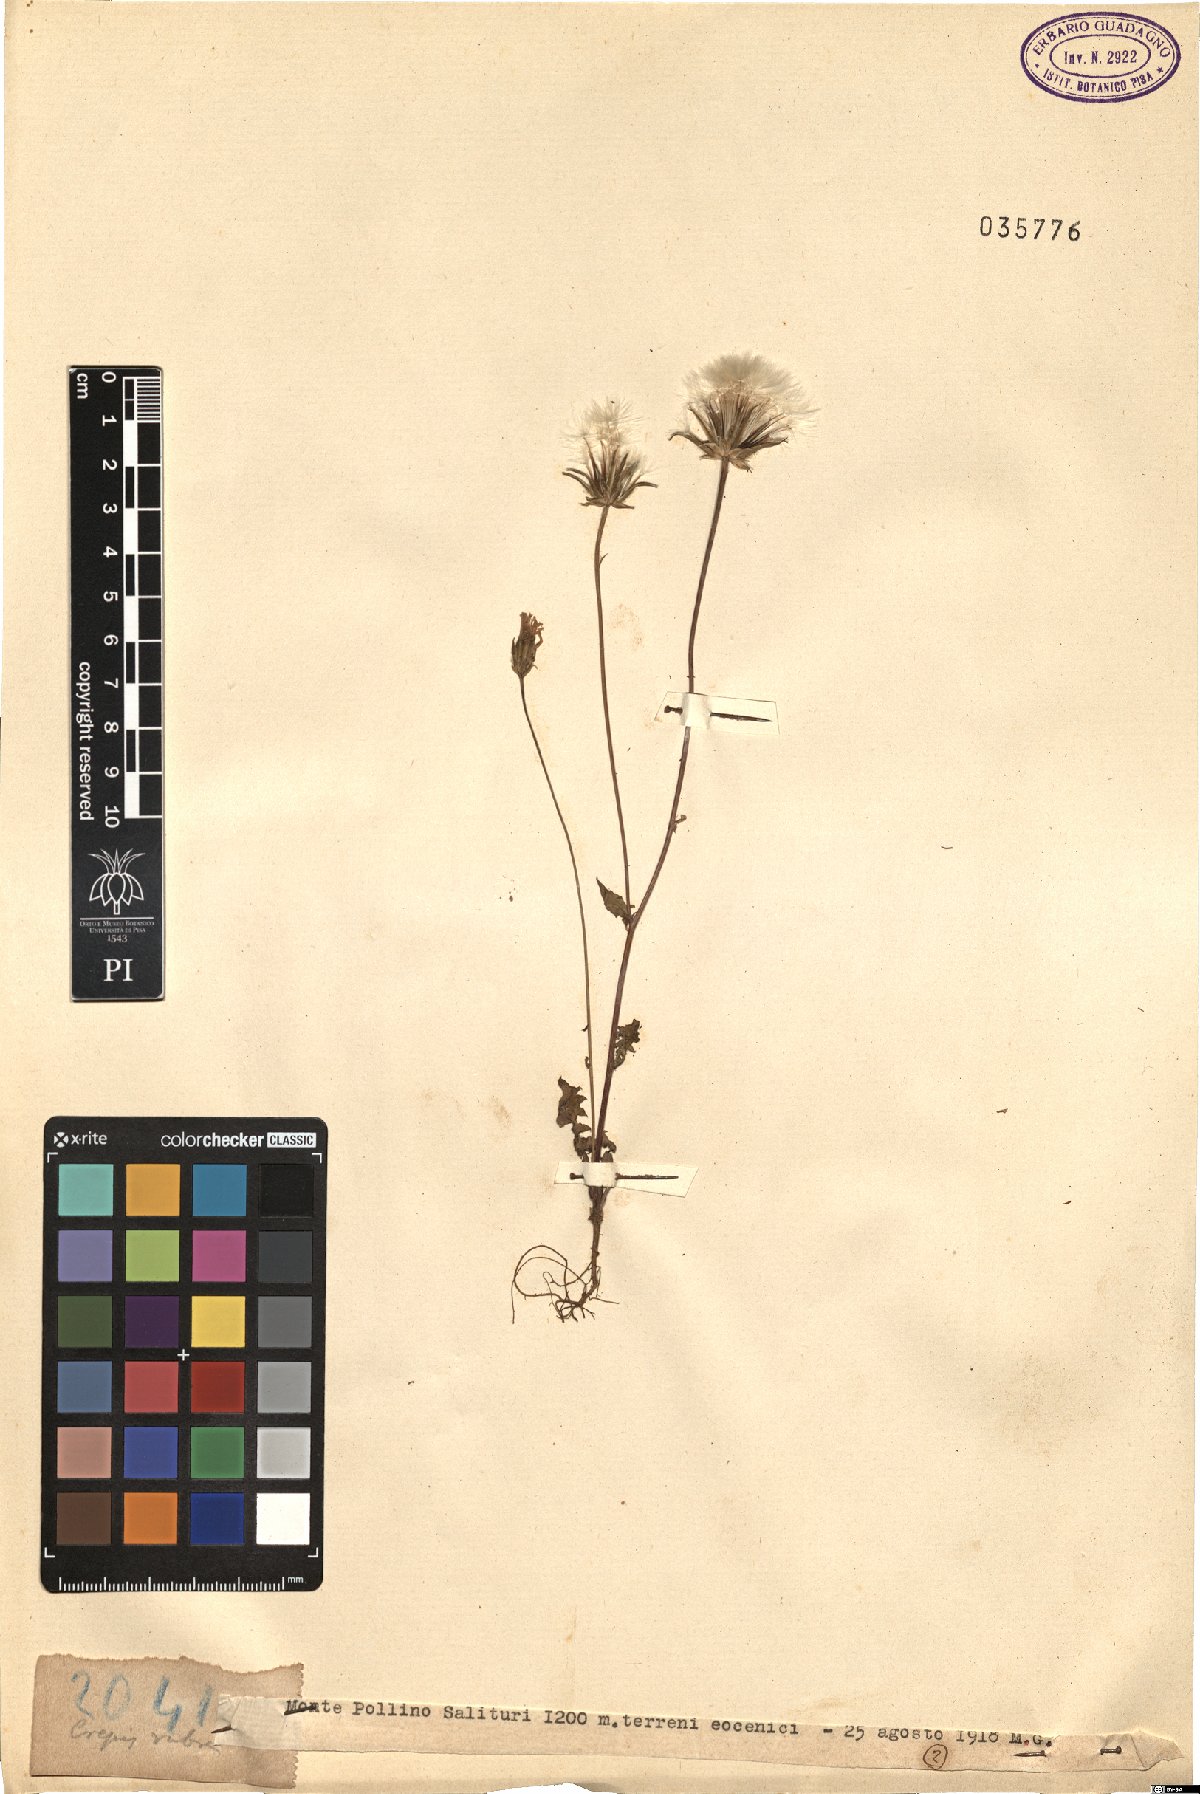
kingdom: Plantae
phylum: Tracheophyta
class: Magnoliopsida
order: Asterales
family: Asteraceae
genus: Crepis
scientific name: Crepis rubra
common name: Pink hawk's-beard
